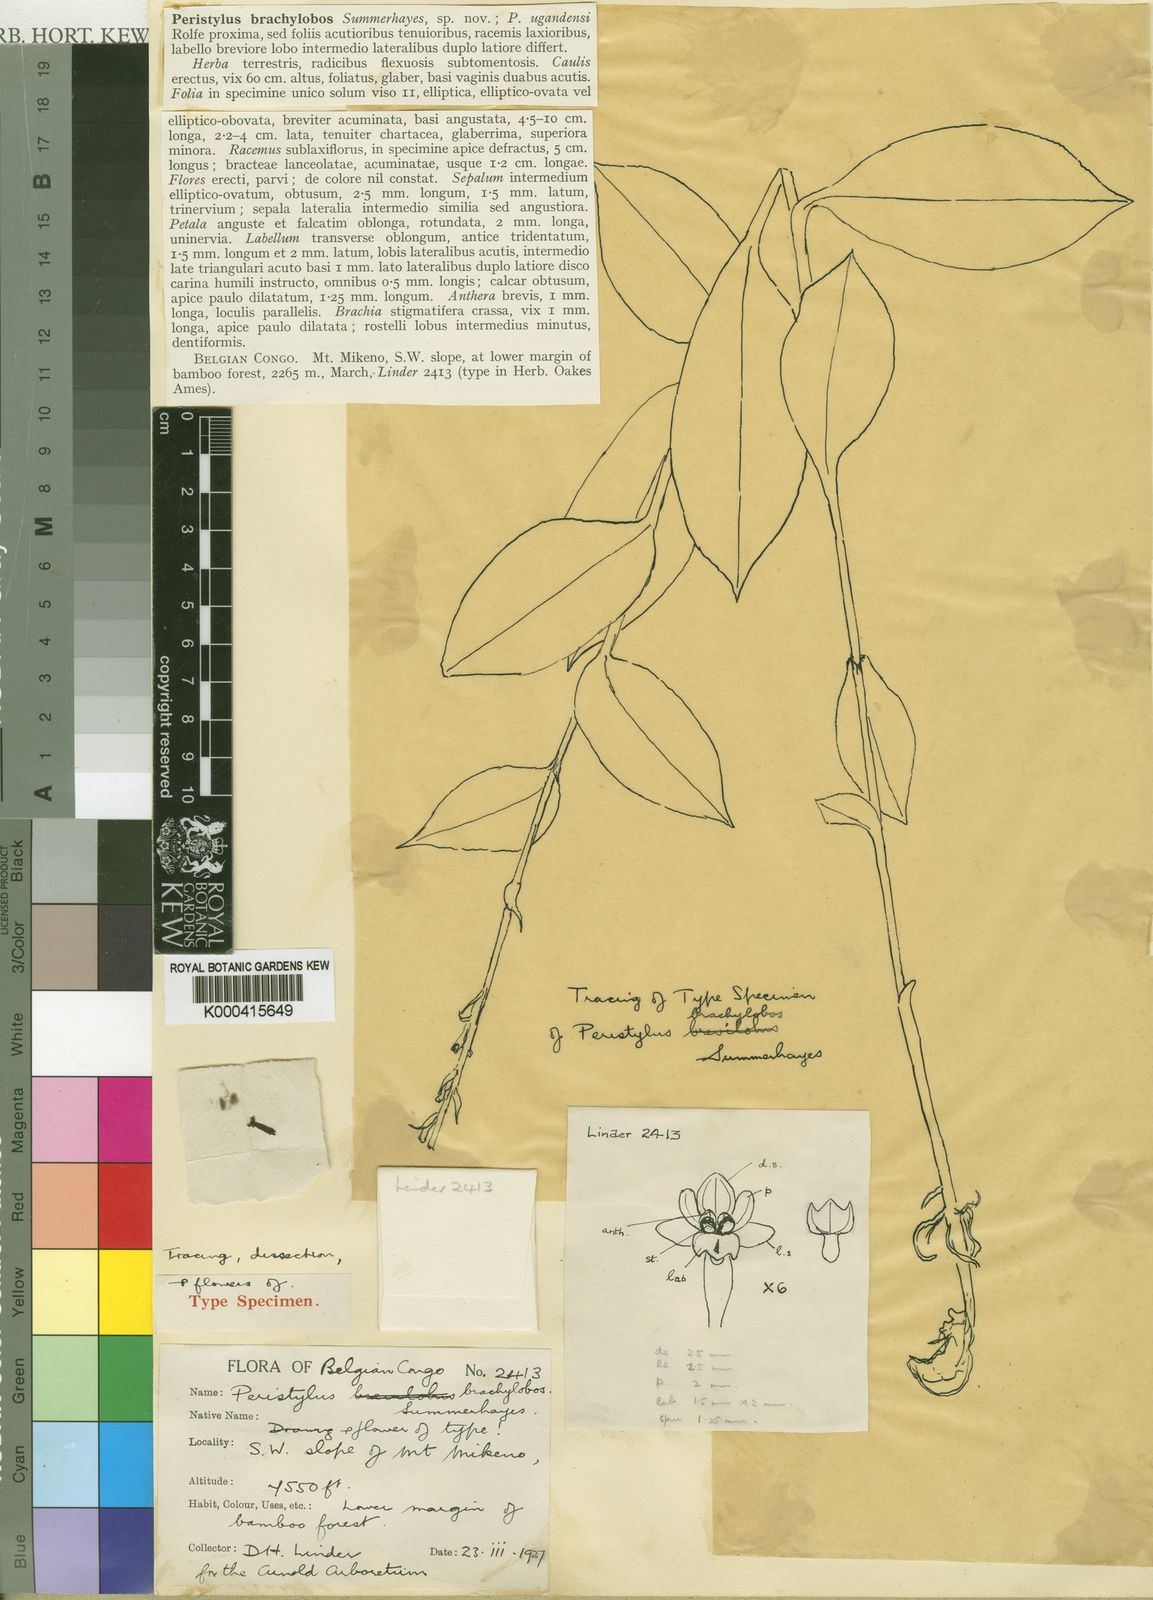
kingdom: Plantae
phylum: Tracheophyta
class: Liliopsida
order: Asparagales
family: Orchidaceae
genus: Habenaria
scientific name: Habenaria petitiana
